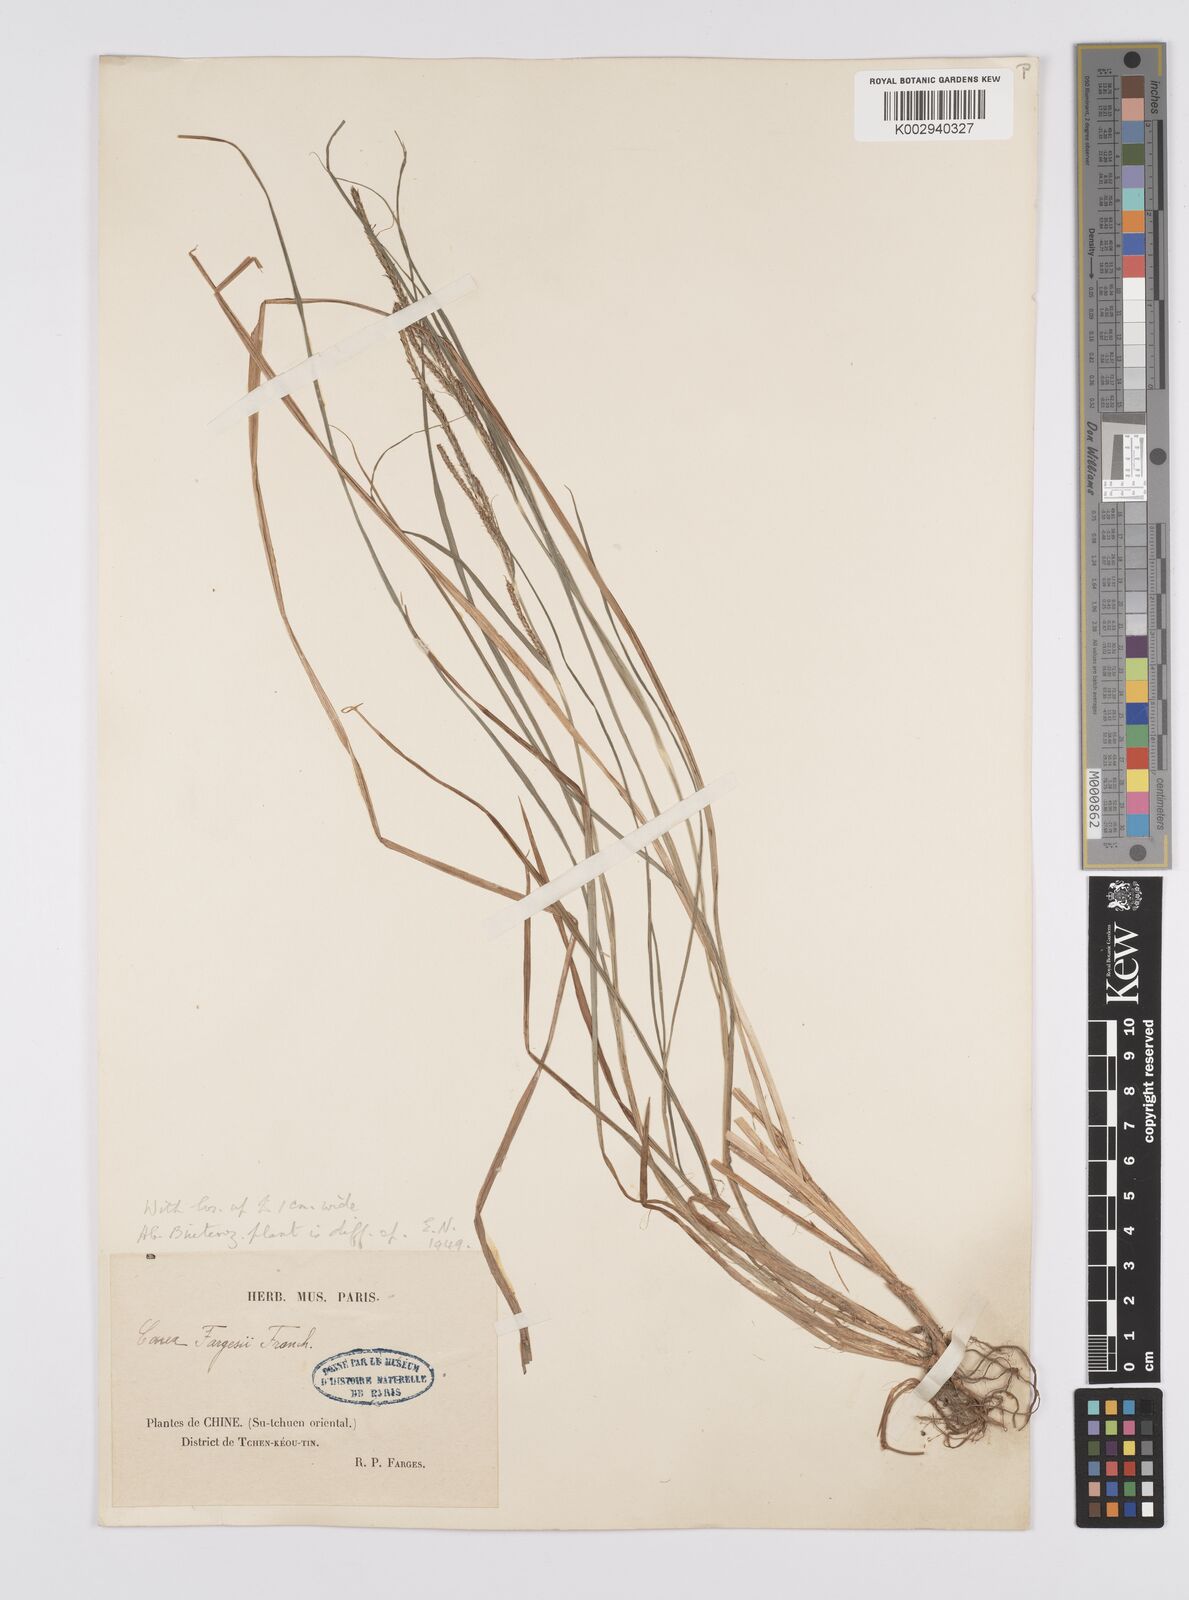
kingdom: Plantae
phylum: Tracheophyta
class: Liliopsida
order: Poales
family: Cyperaceae
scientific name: Cyperaceae
